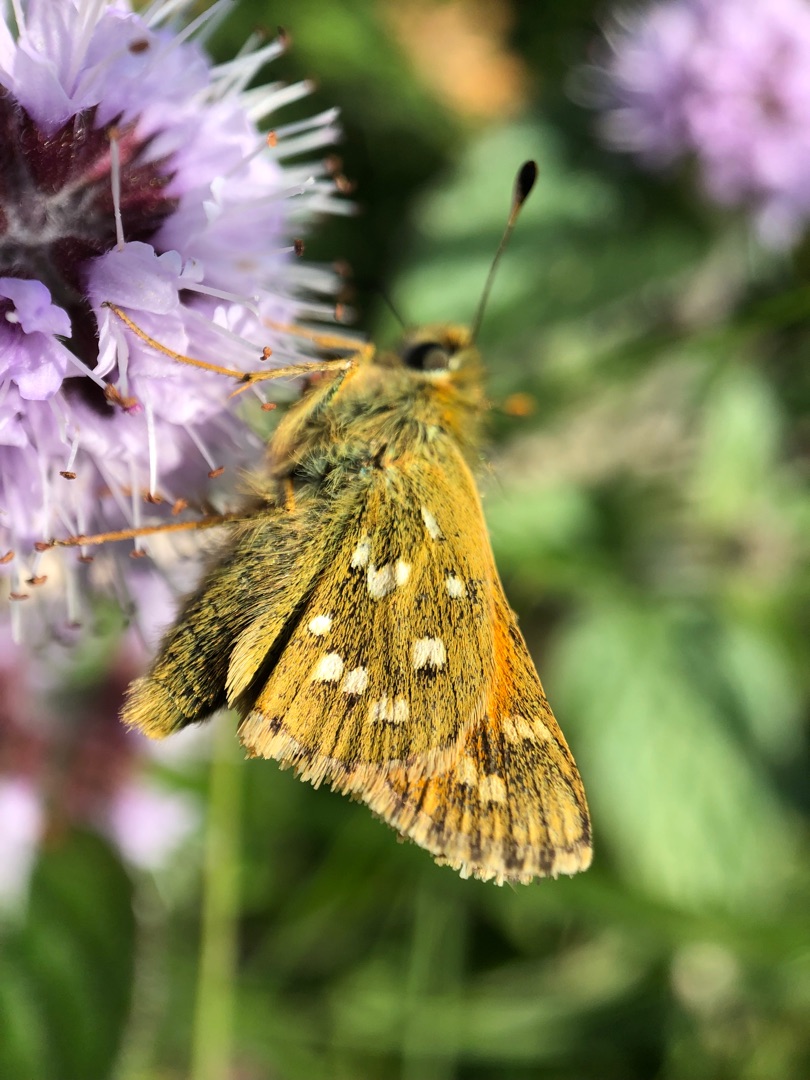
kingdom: Animalia
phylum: Arthropoda
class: Insecta
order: Lepidoptera
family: Hesperiidae
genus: Hesperia
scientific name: Hesperia comma
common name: Kommabredpande
